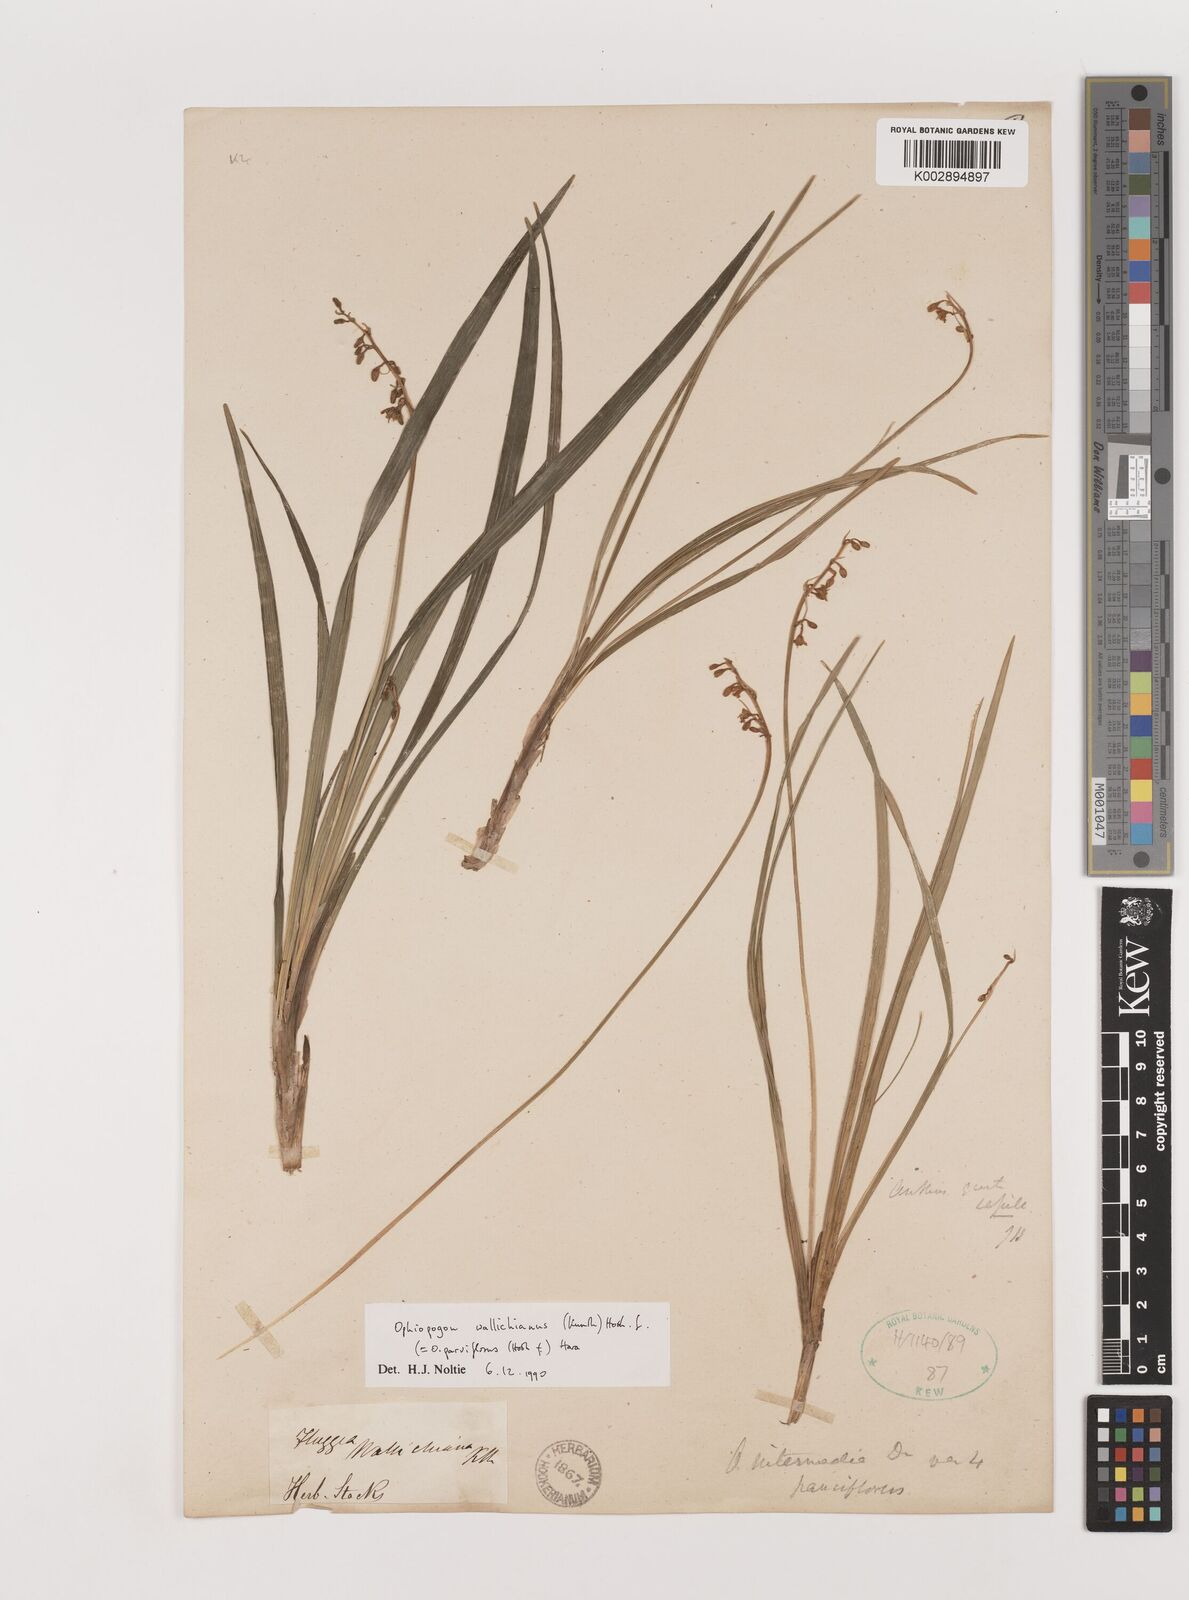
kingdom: Plantae
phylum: Tracheophyta
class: Liliopsida
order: Asparagales
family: Asparagaceae
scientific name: Asparagaceae
